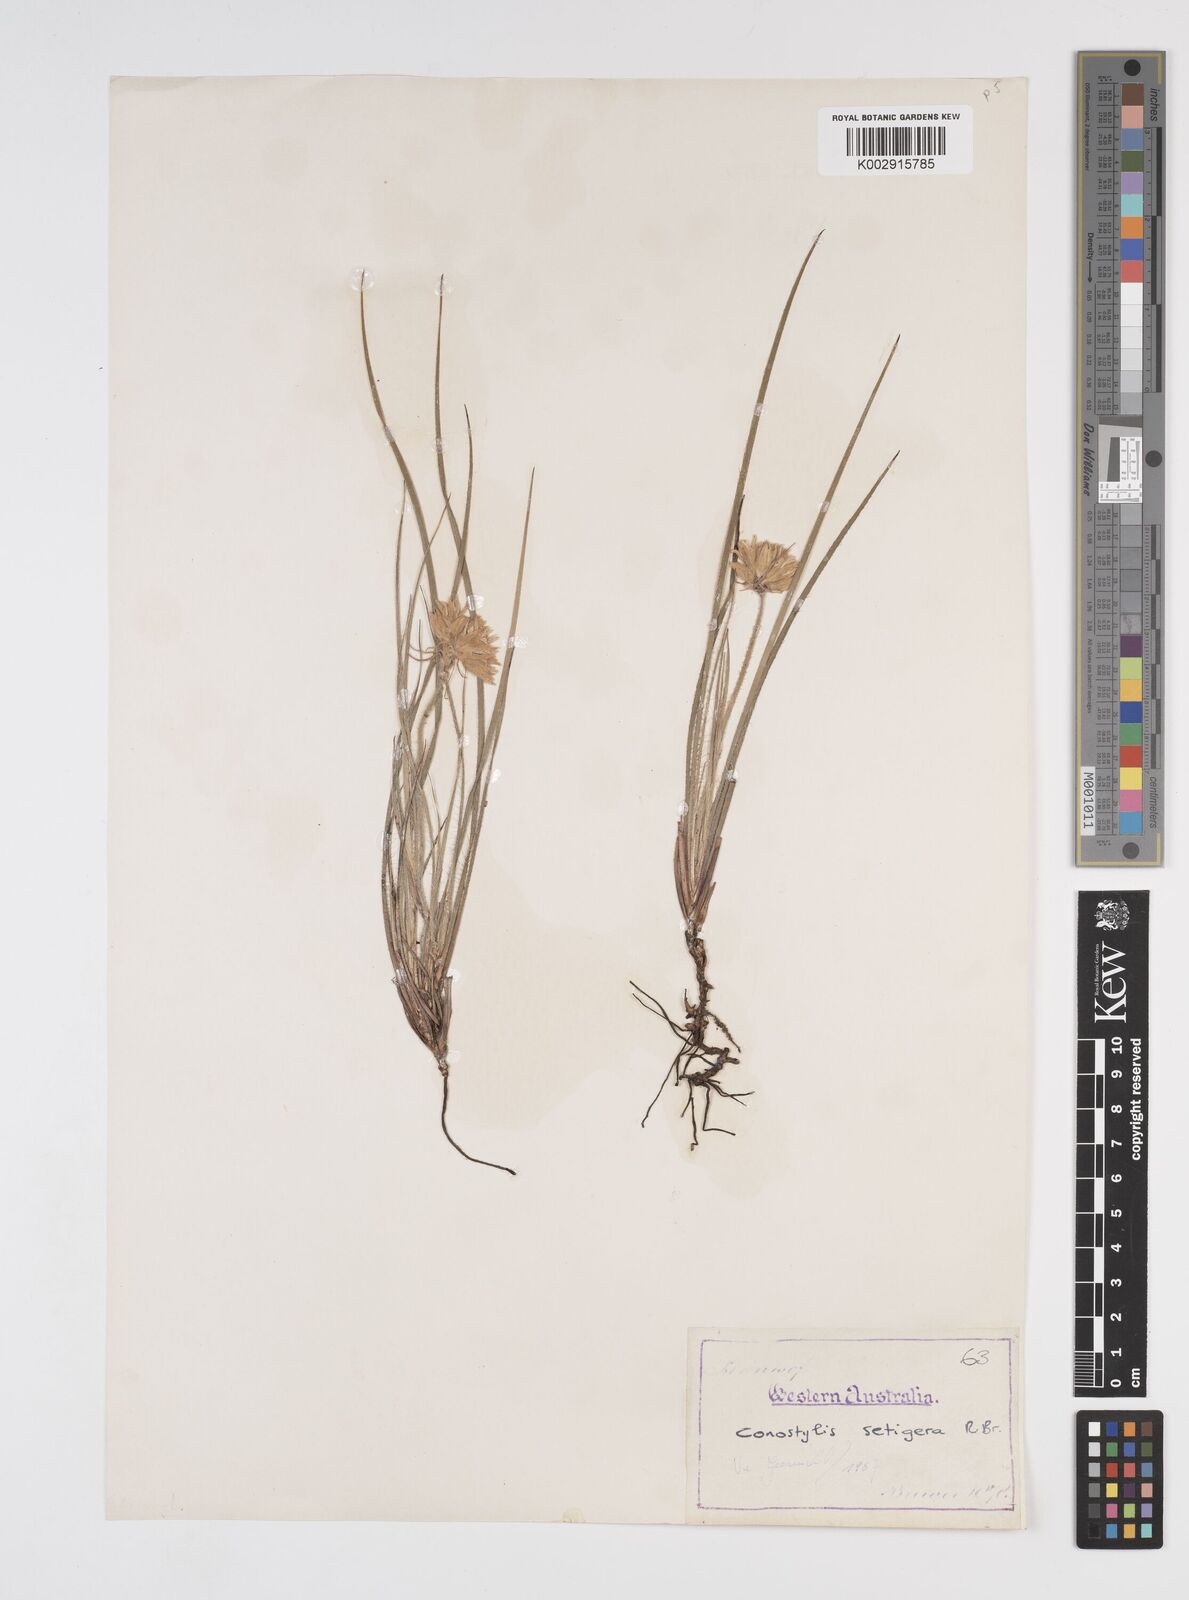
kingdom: Plantae
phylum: Tracheophyta
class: Liliopsida
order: Commelinales
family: Haemodoraceae
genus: Conostylis
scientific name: Conostylis setigera
